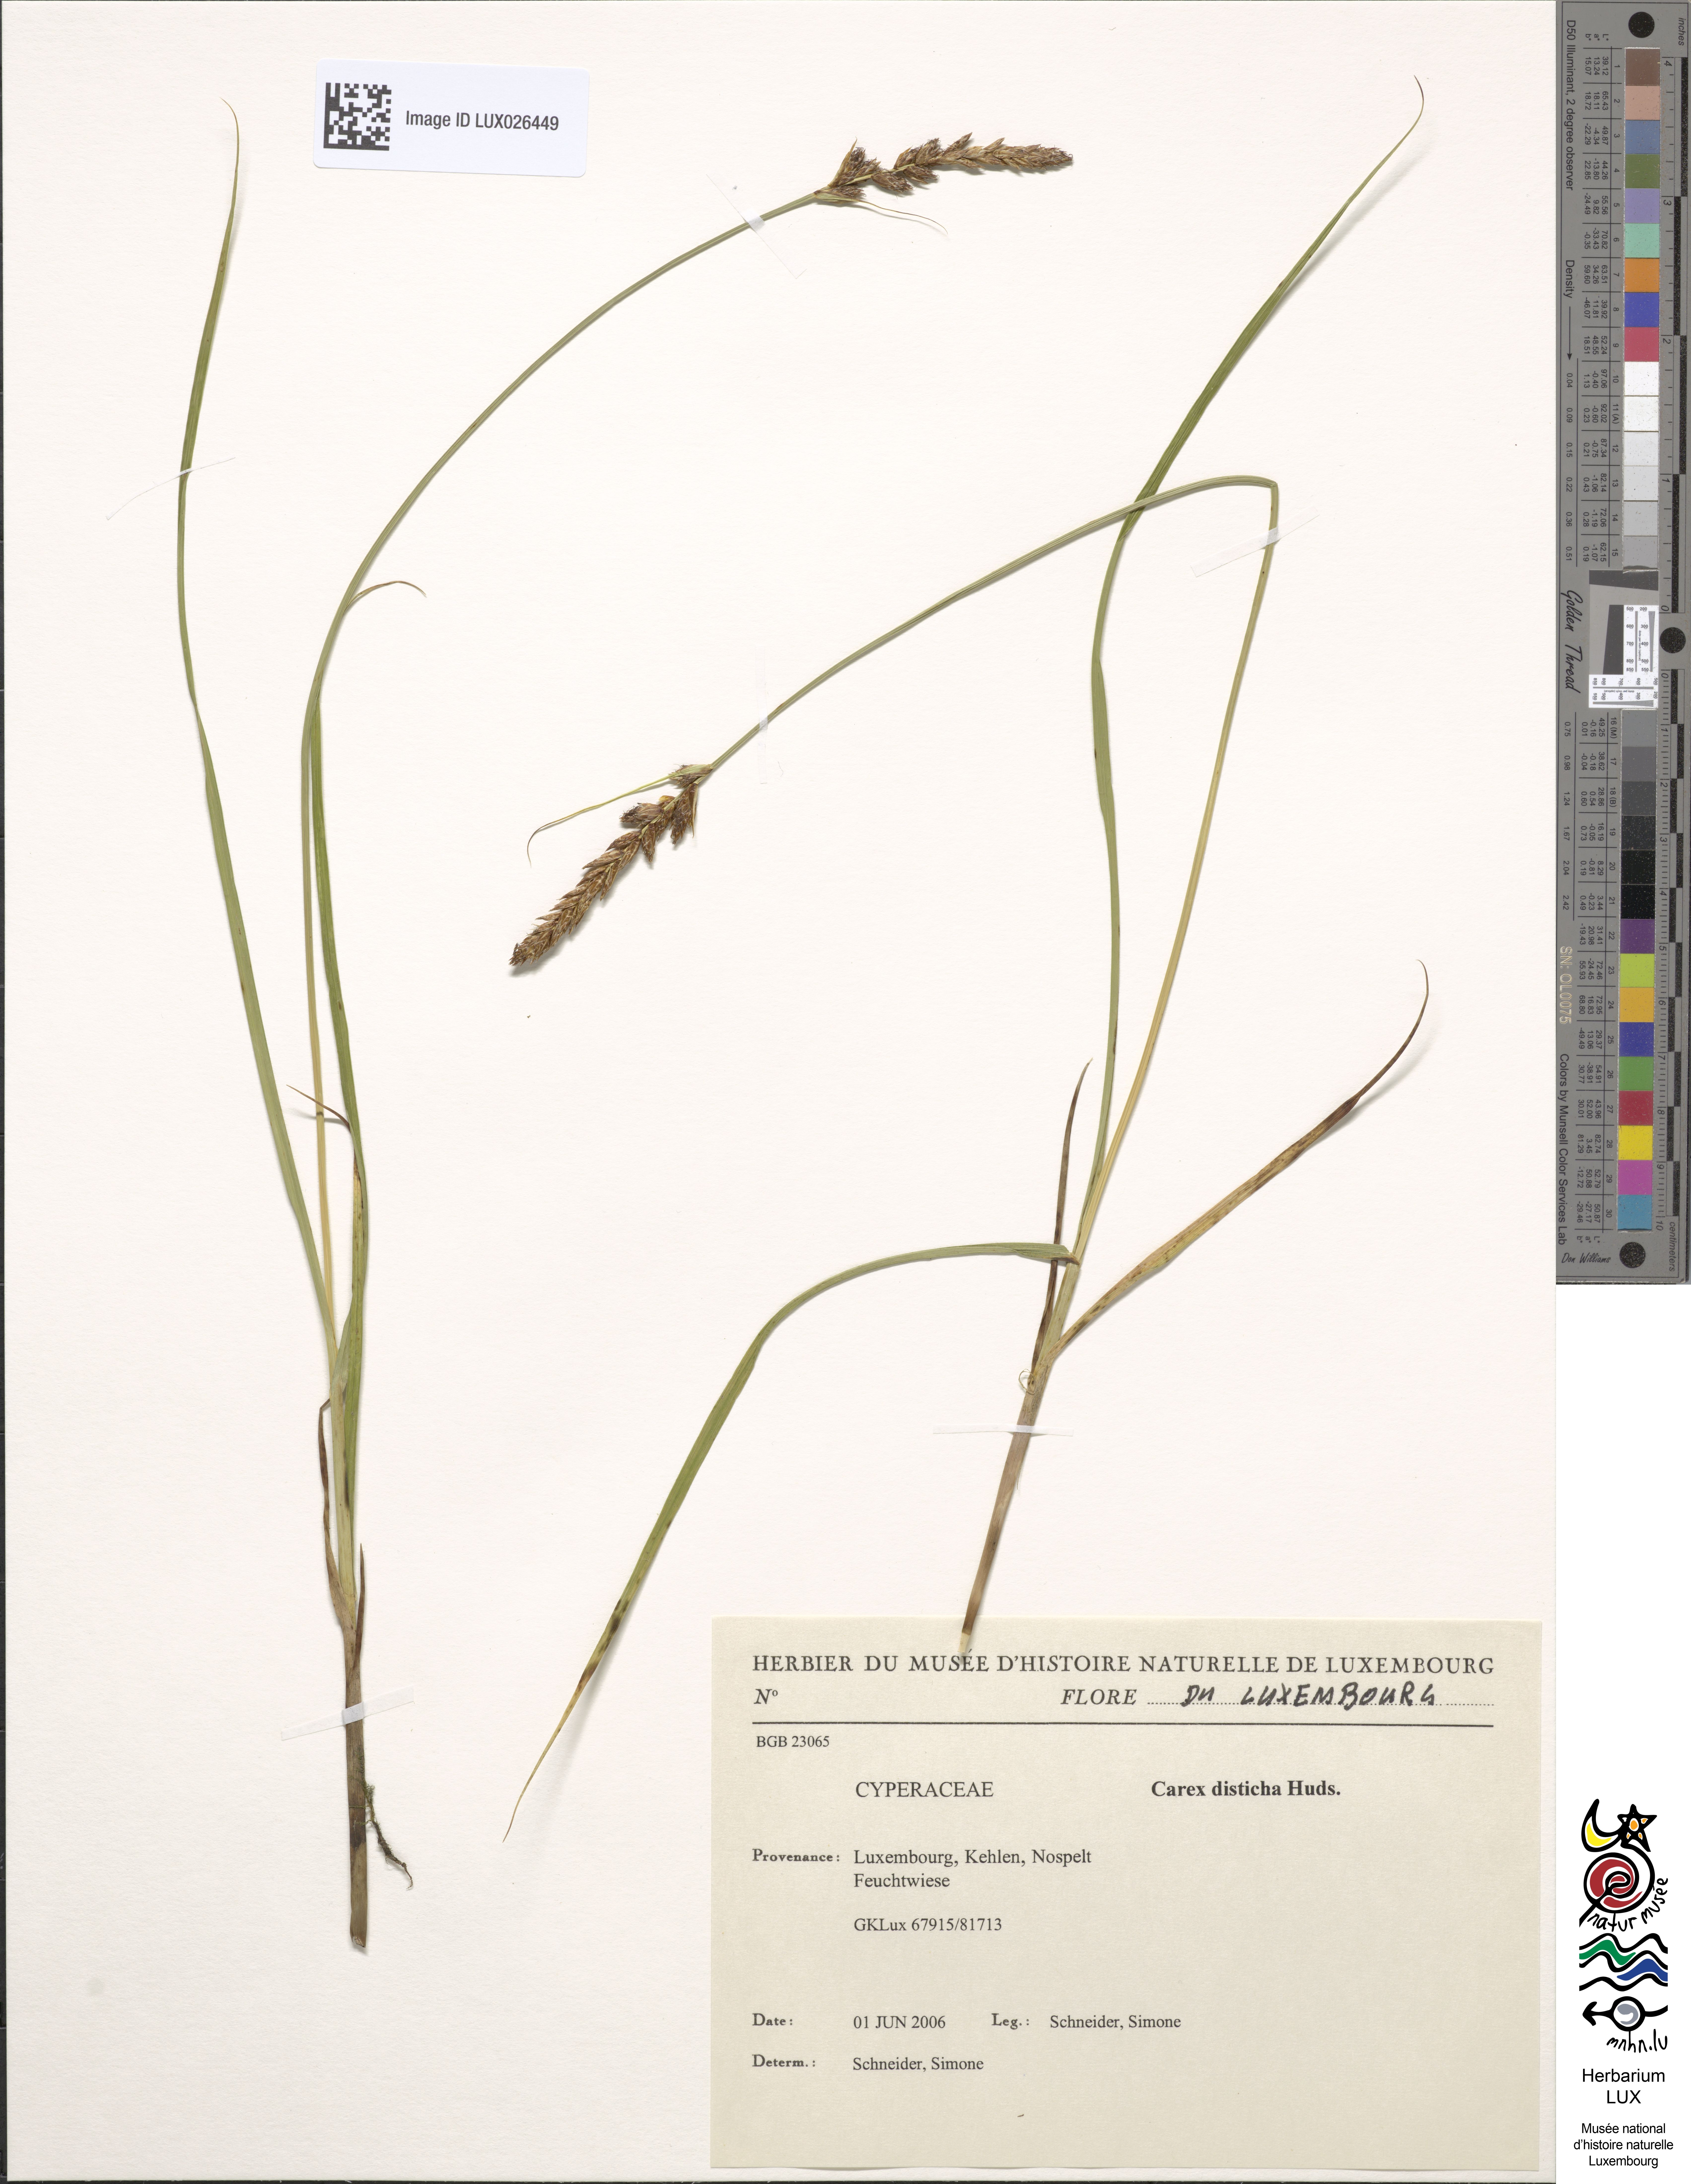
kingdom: Plantae
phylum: Tracheophyta
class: Liliopsida
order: Poales
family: Cyperaceae
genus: Carex
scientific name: Carex disticha
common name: Brown sedge
